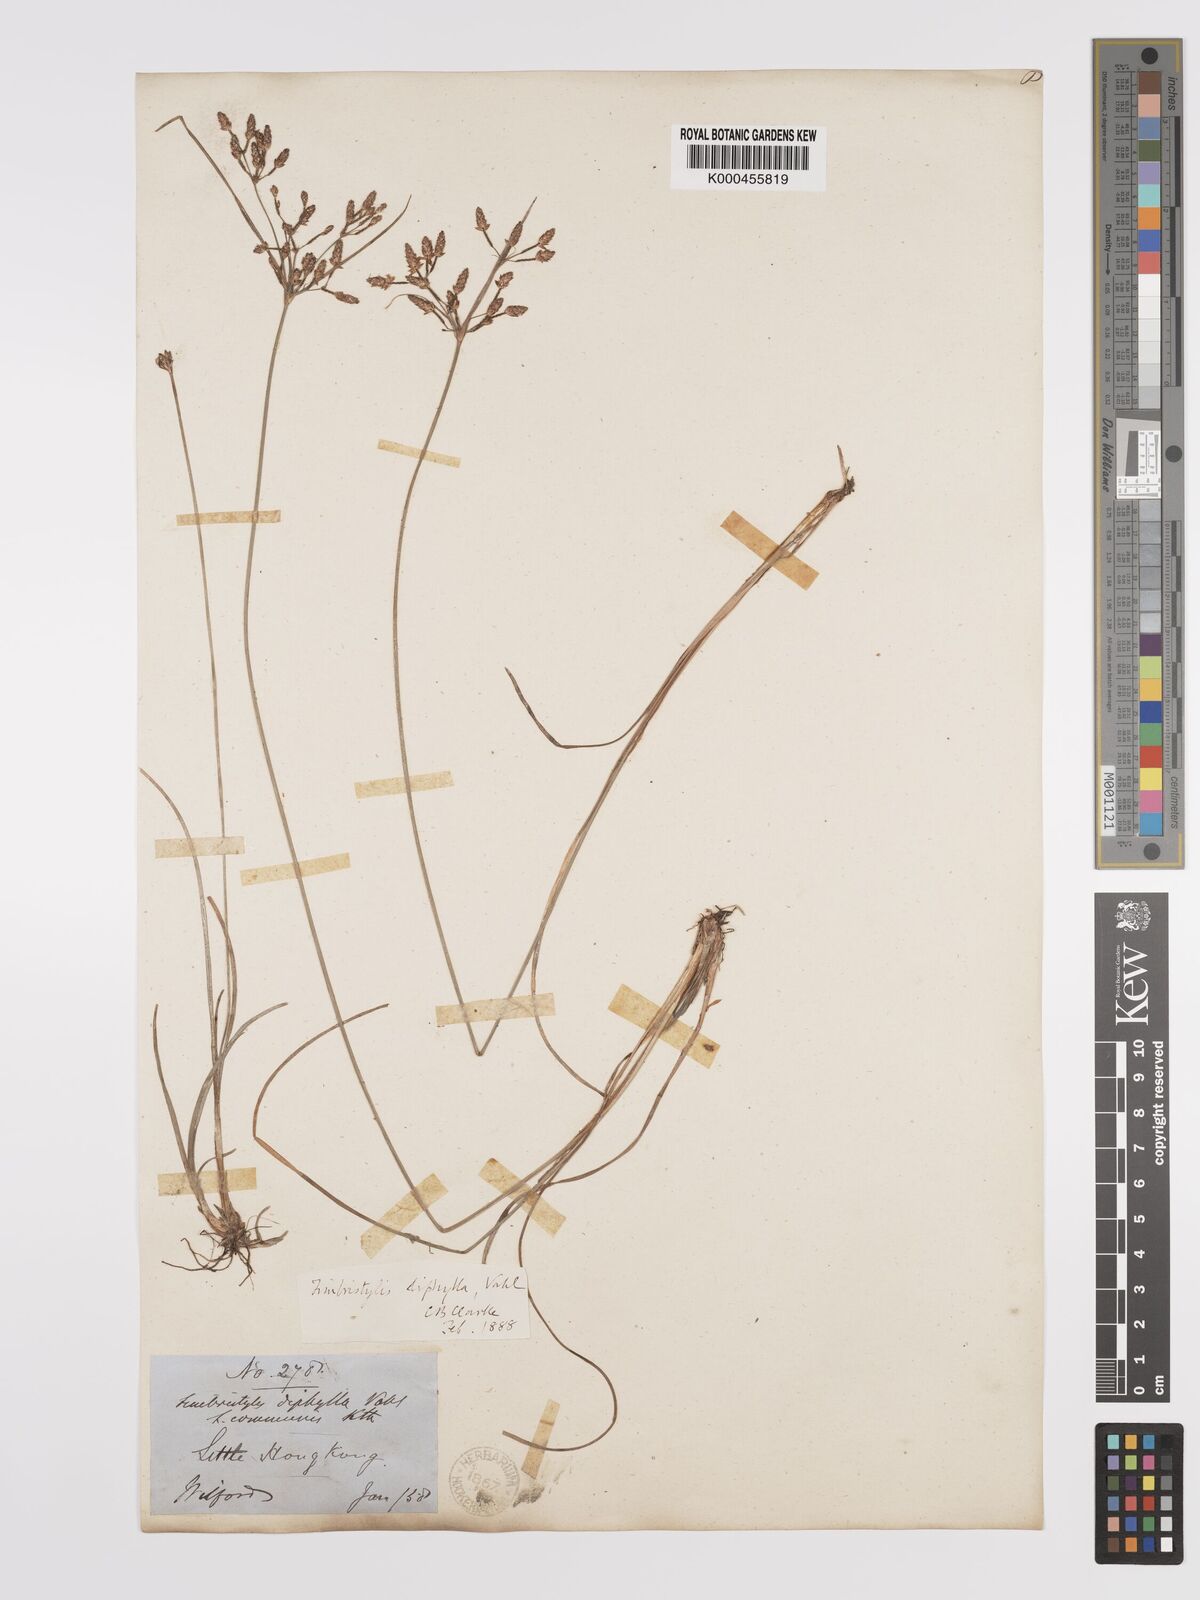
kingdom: Plantae
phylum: Tracheophyta
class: Liliopsida
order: Poales
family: Cyperaceae
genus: Fimbristylis
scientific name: Fimbristylis dichotoma
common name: Forked fimbry
